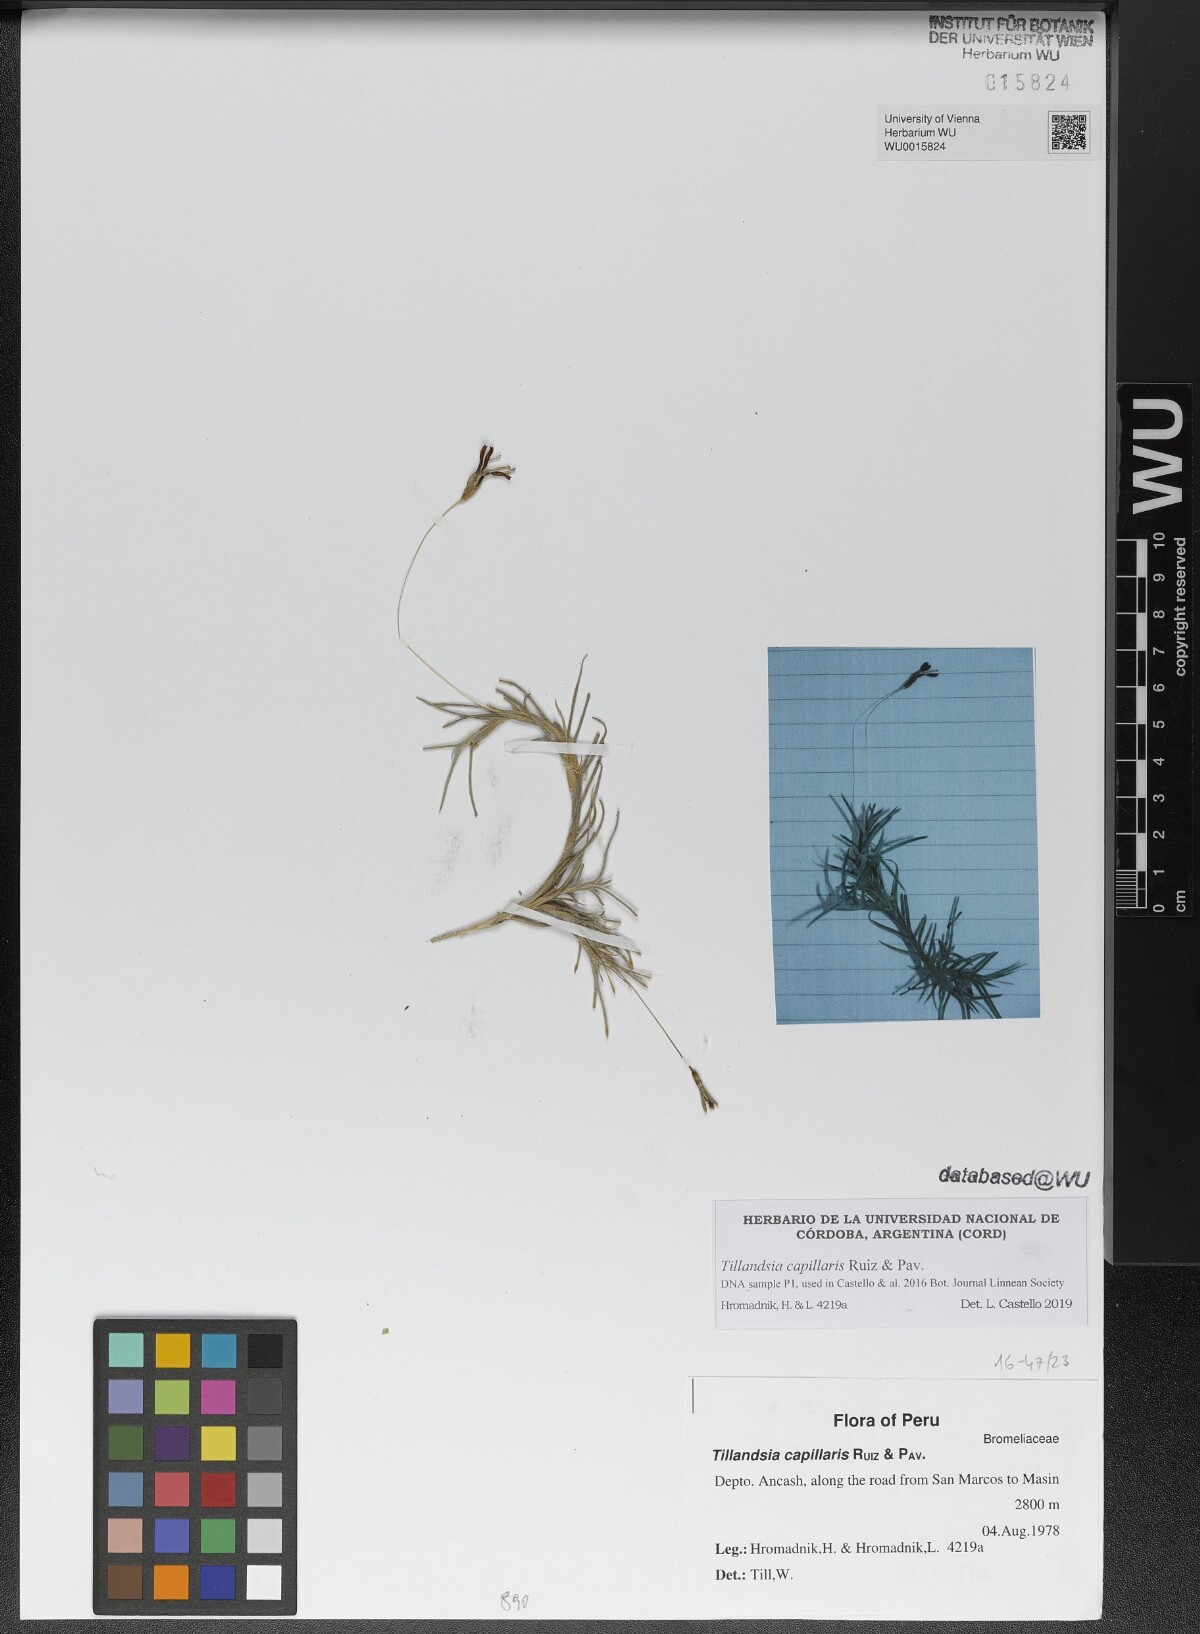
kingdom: Plantae
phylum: Tracheophyta
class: Liliopsida
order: Poales
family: Bromeliaceae
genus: Tillandsia
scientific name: Tillandsia capillaris
